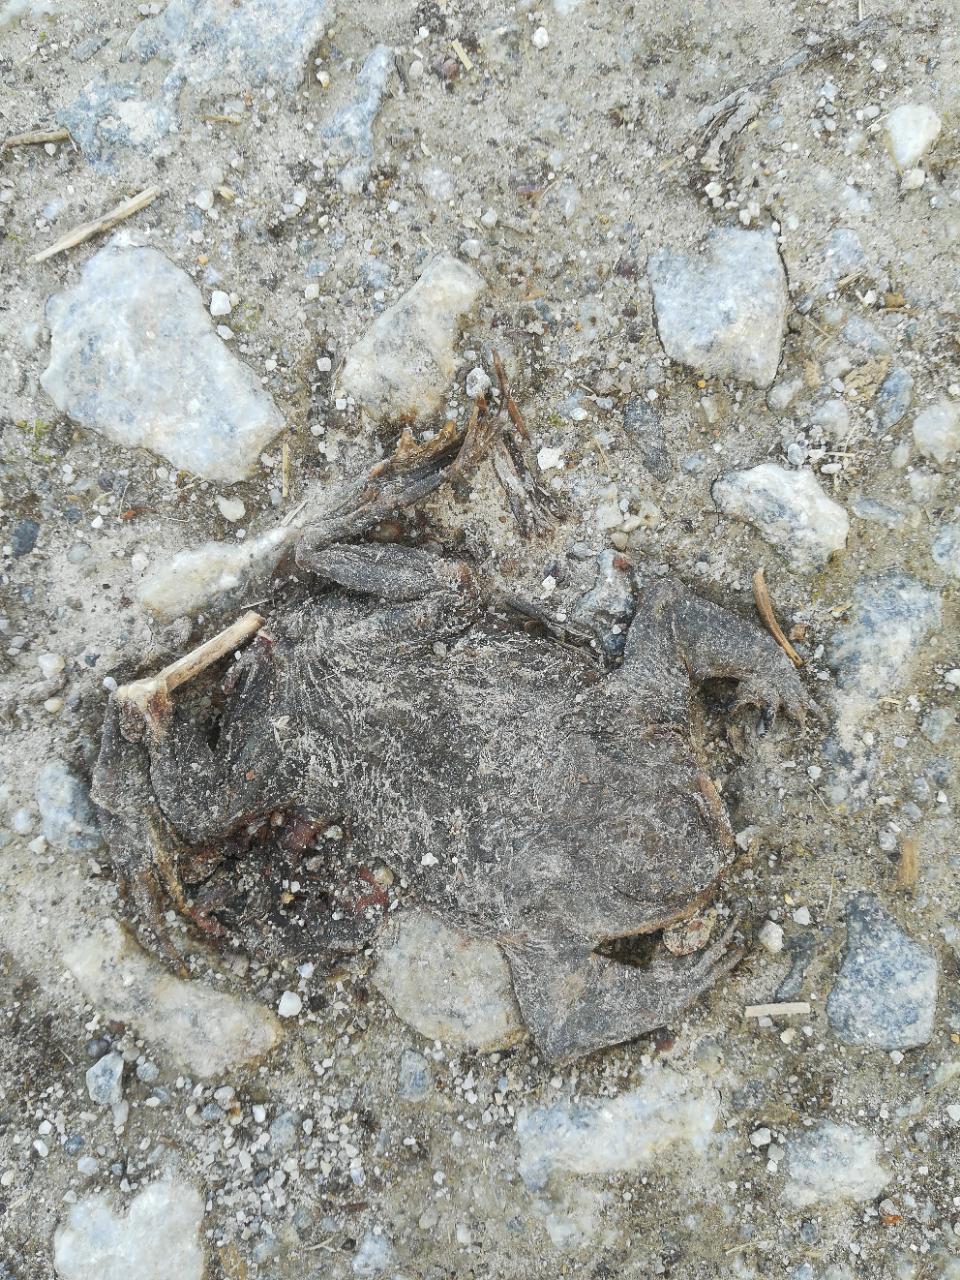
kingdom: Animalia
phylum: Chordata
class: Amphibia
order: Anura
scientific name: Anura
